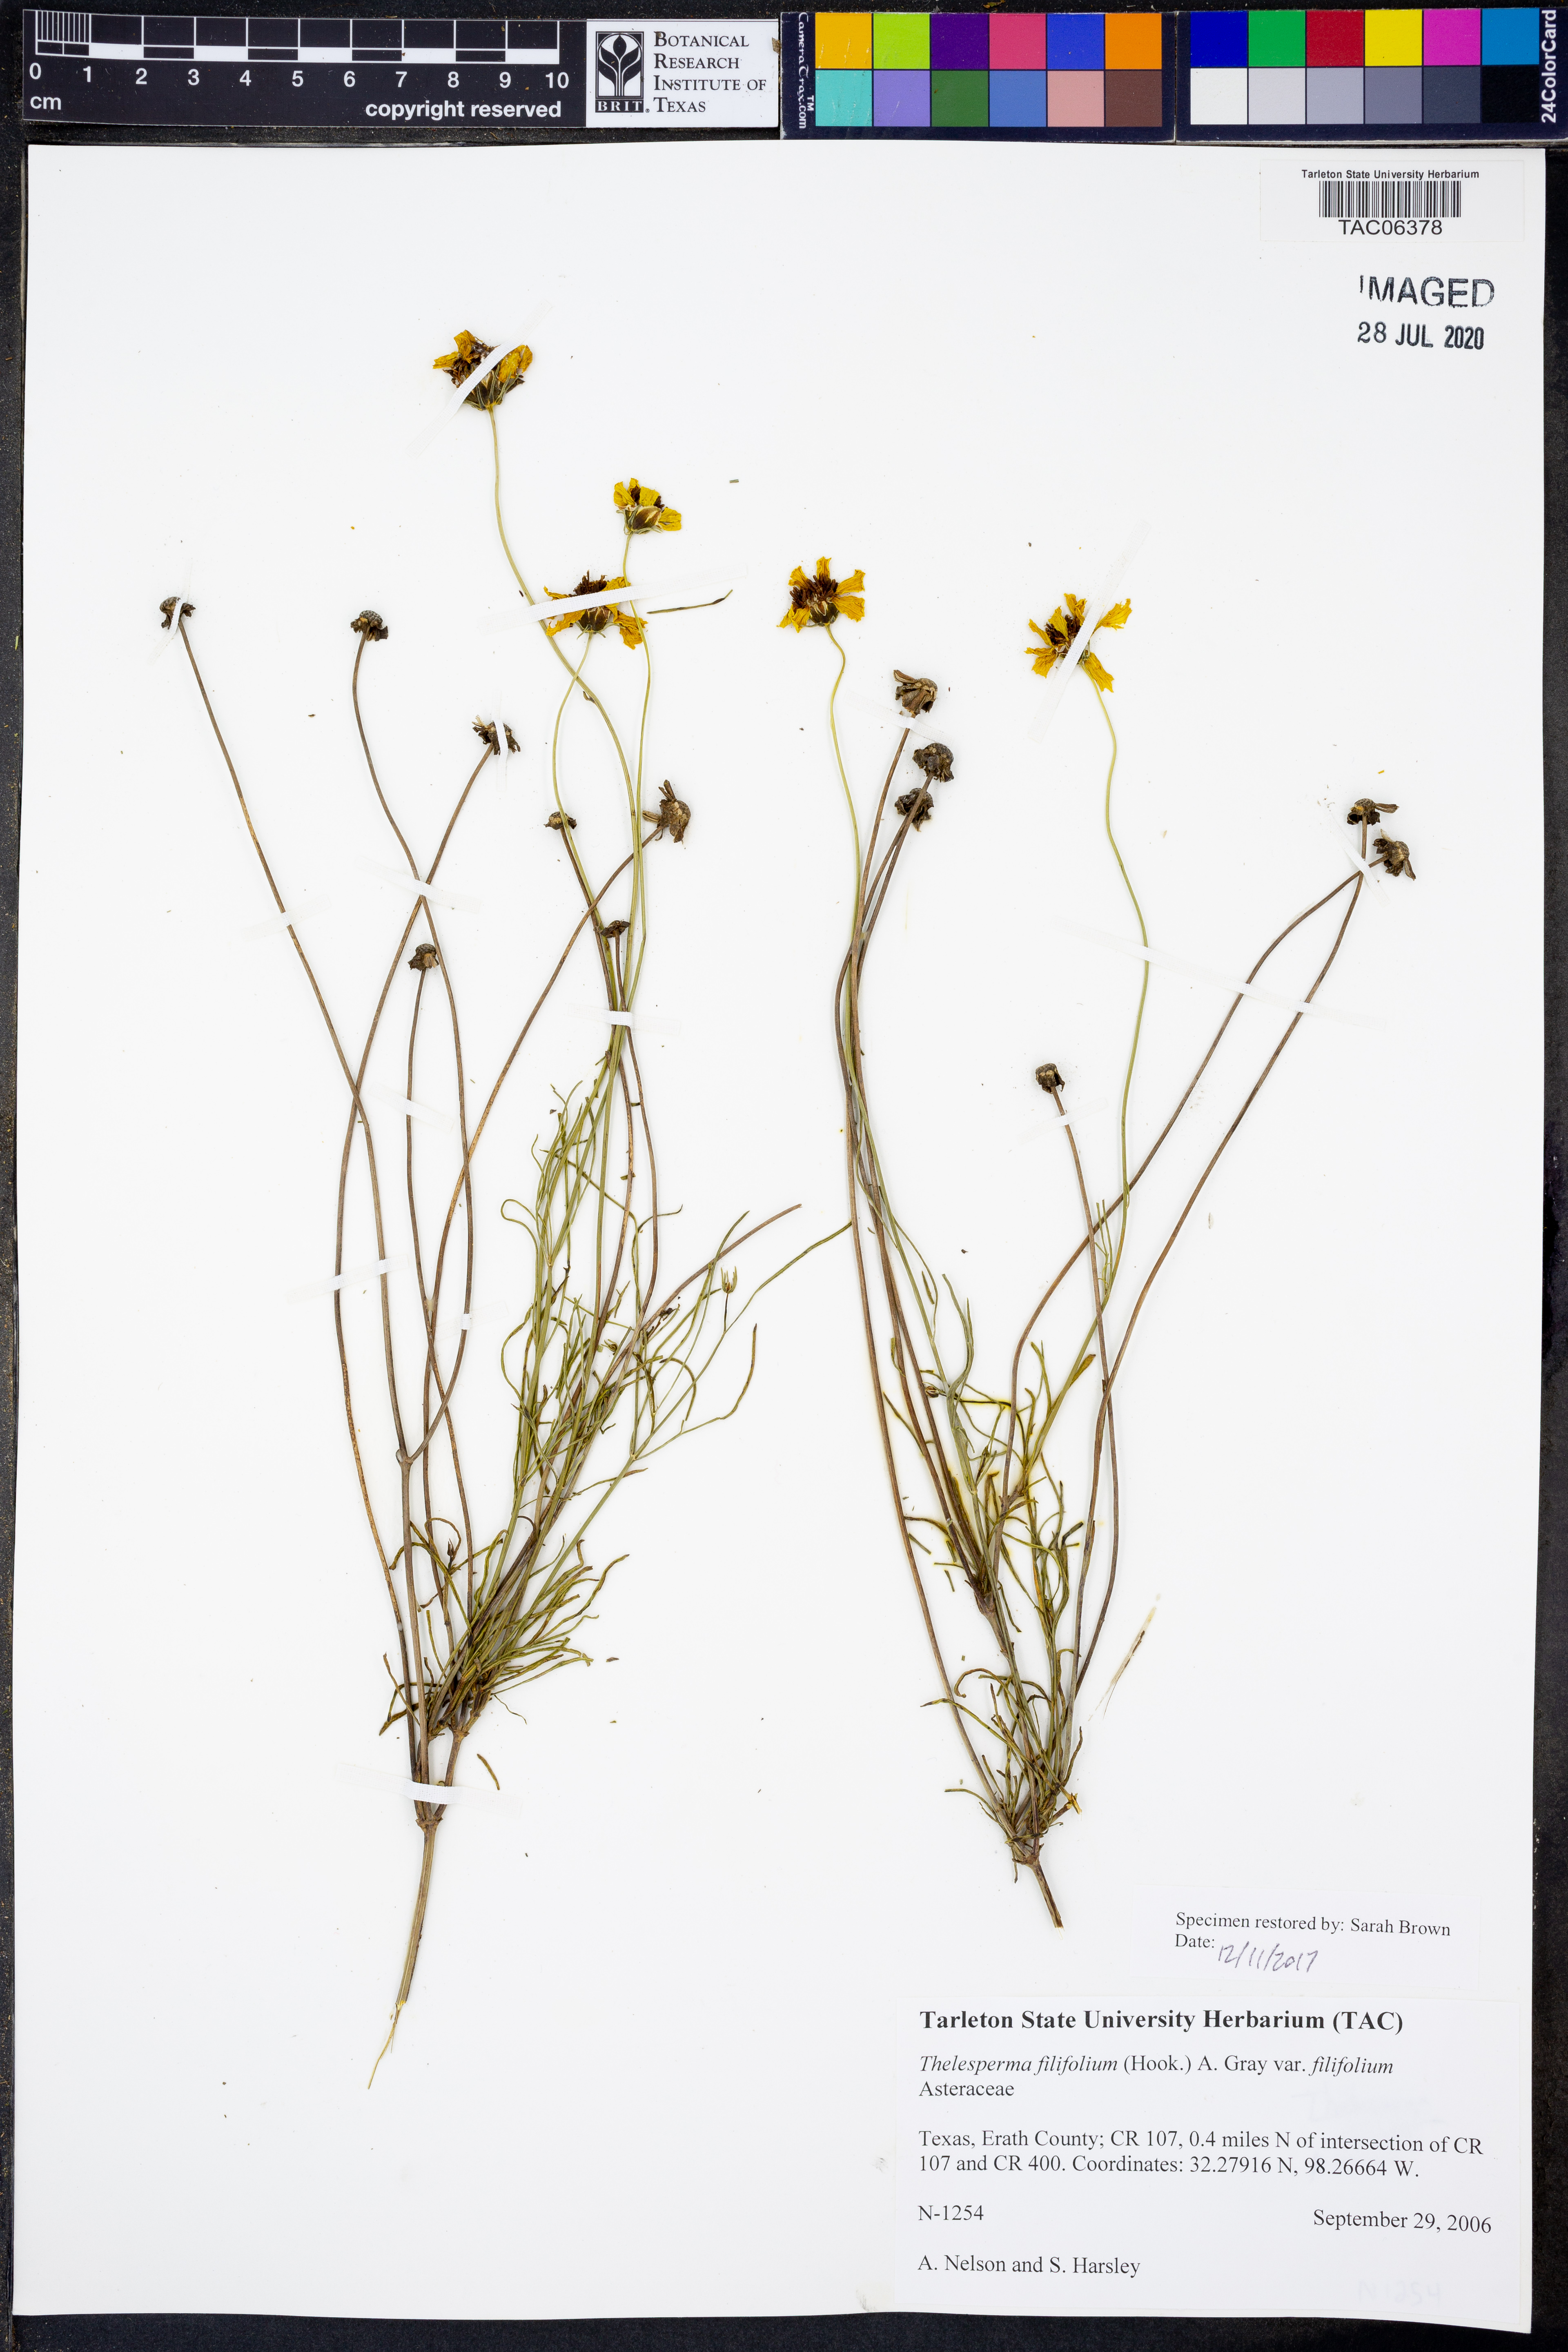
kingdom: Plantae
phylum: Tracheophyta
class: Magnoliopsida
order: Asterales
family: Asteraceae
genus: Thelesperma
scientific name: Thelesperma filifolium
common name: Stiff greenthread
